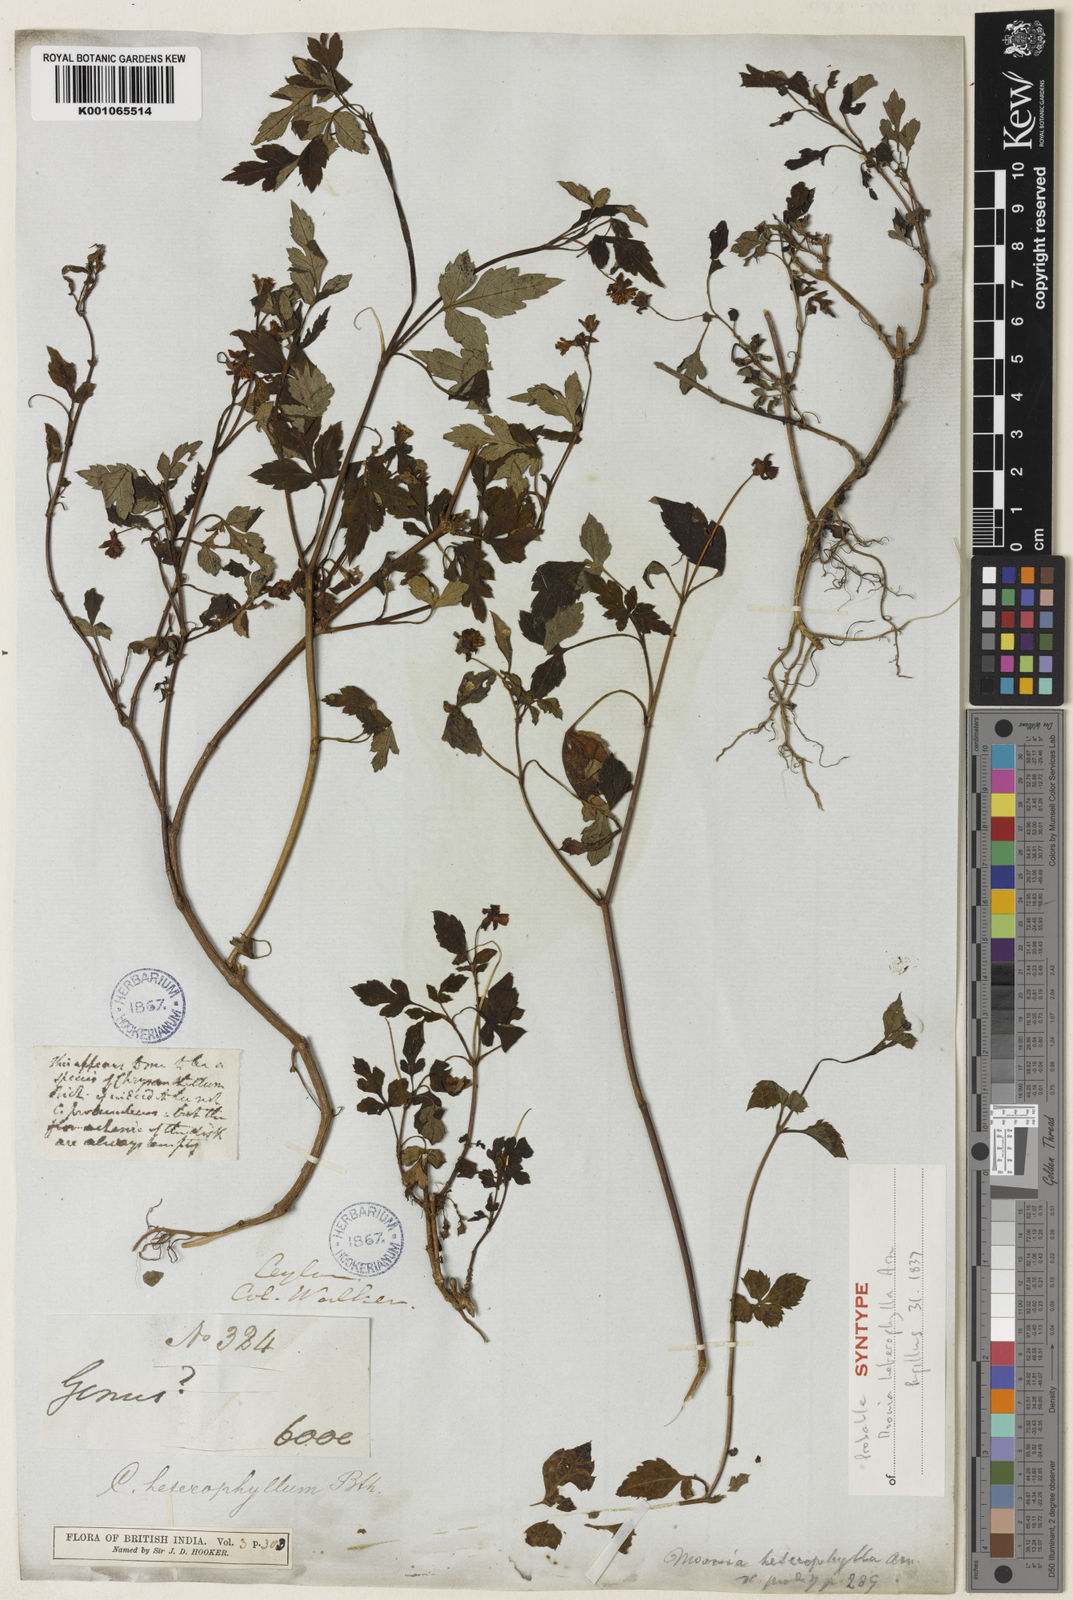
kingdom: Plantae
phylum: Tracheophyta
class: Magnoliopsida
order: Asterales
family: Asteraceae
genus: Moonia
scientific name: Moonia heterophylla
